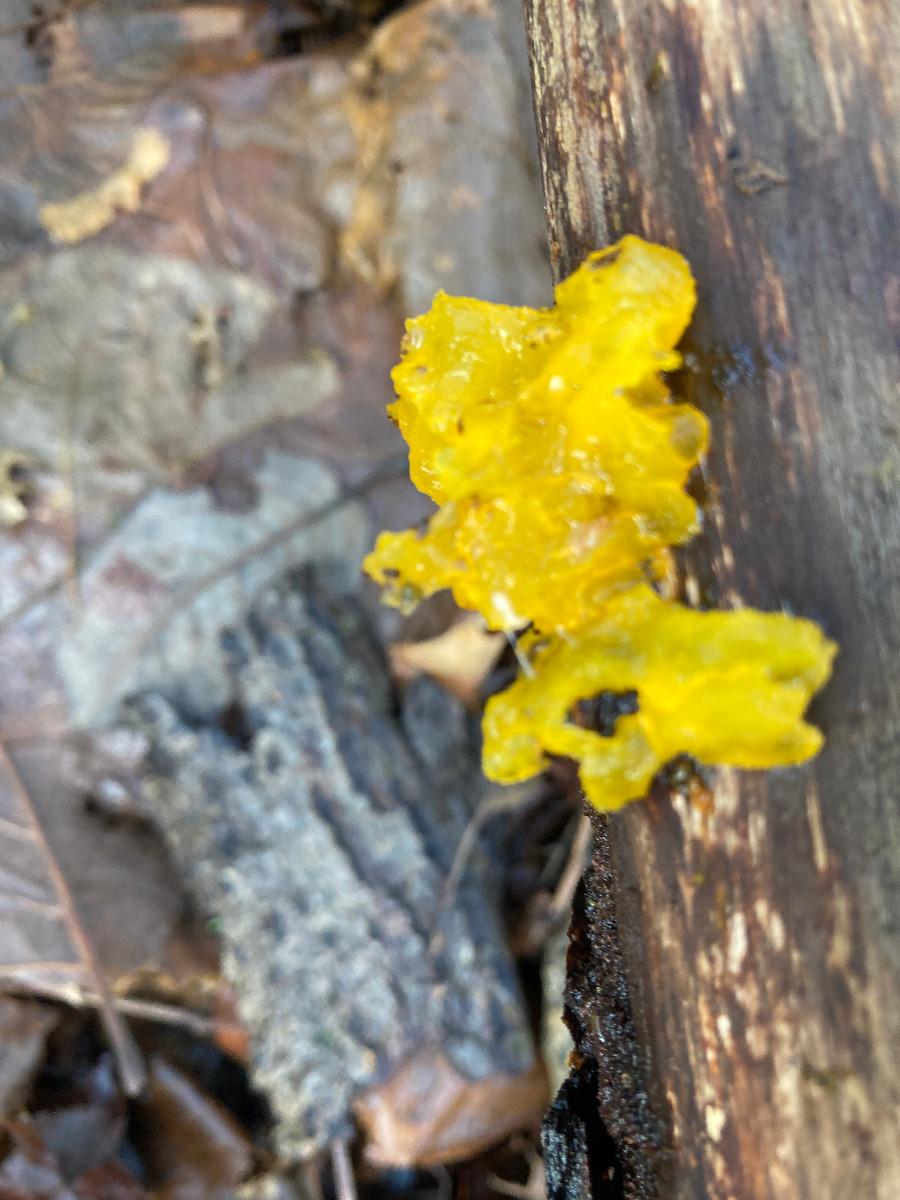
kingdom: Fungi
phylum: Basidiomycota
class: Tremellomycetes
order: Tremellales
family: Tremellaceae
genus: Tremella
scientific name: Tremella mesenterica
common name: gul bævresvamp
